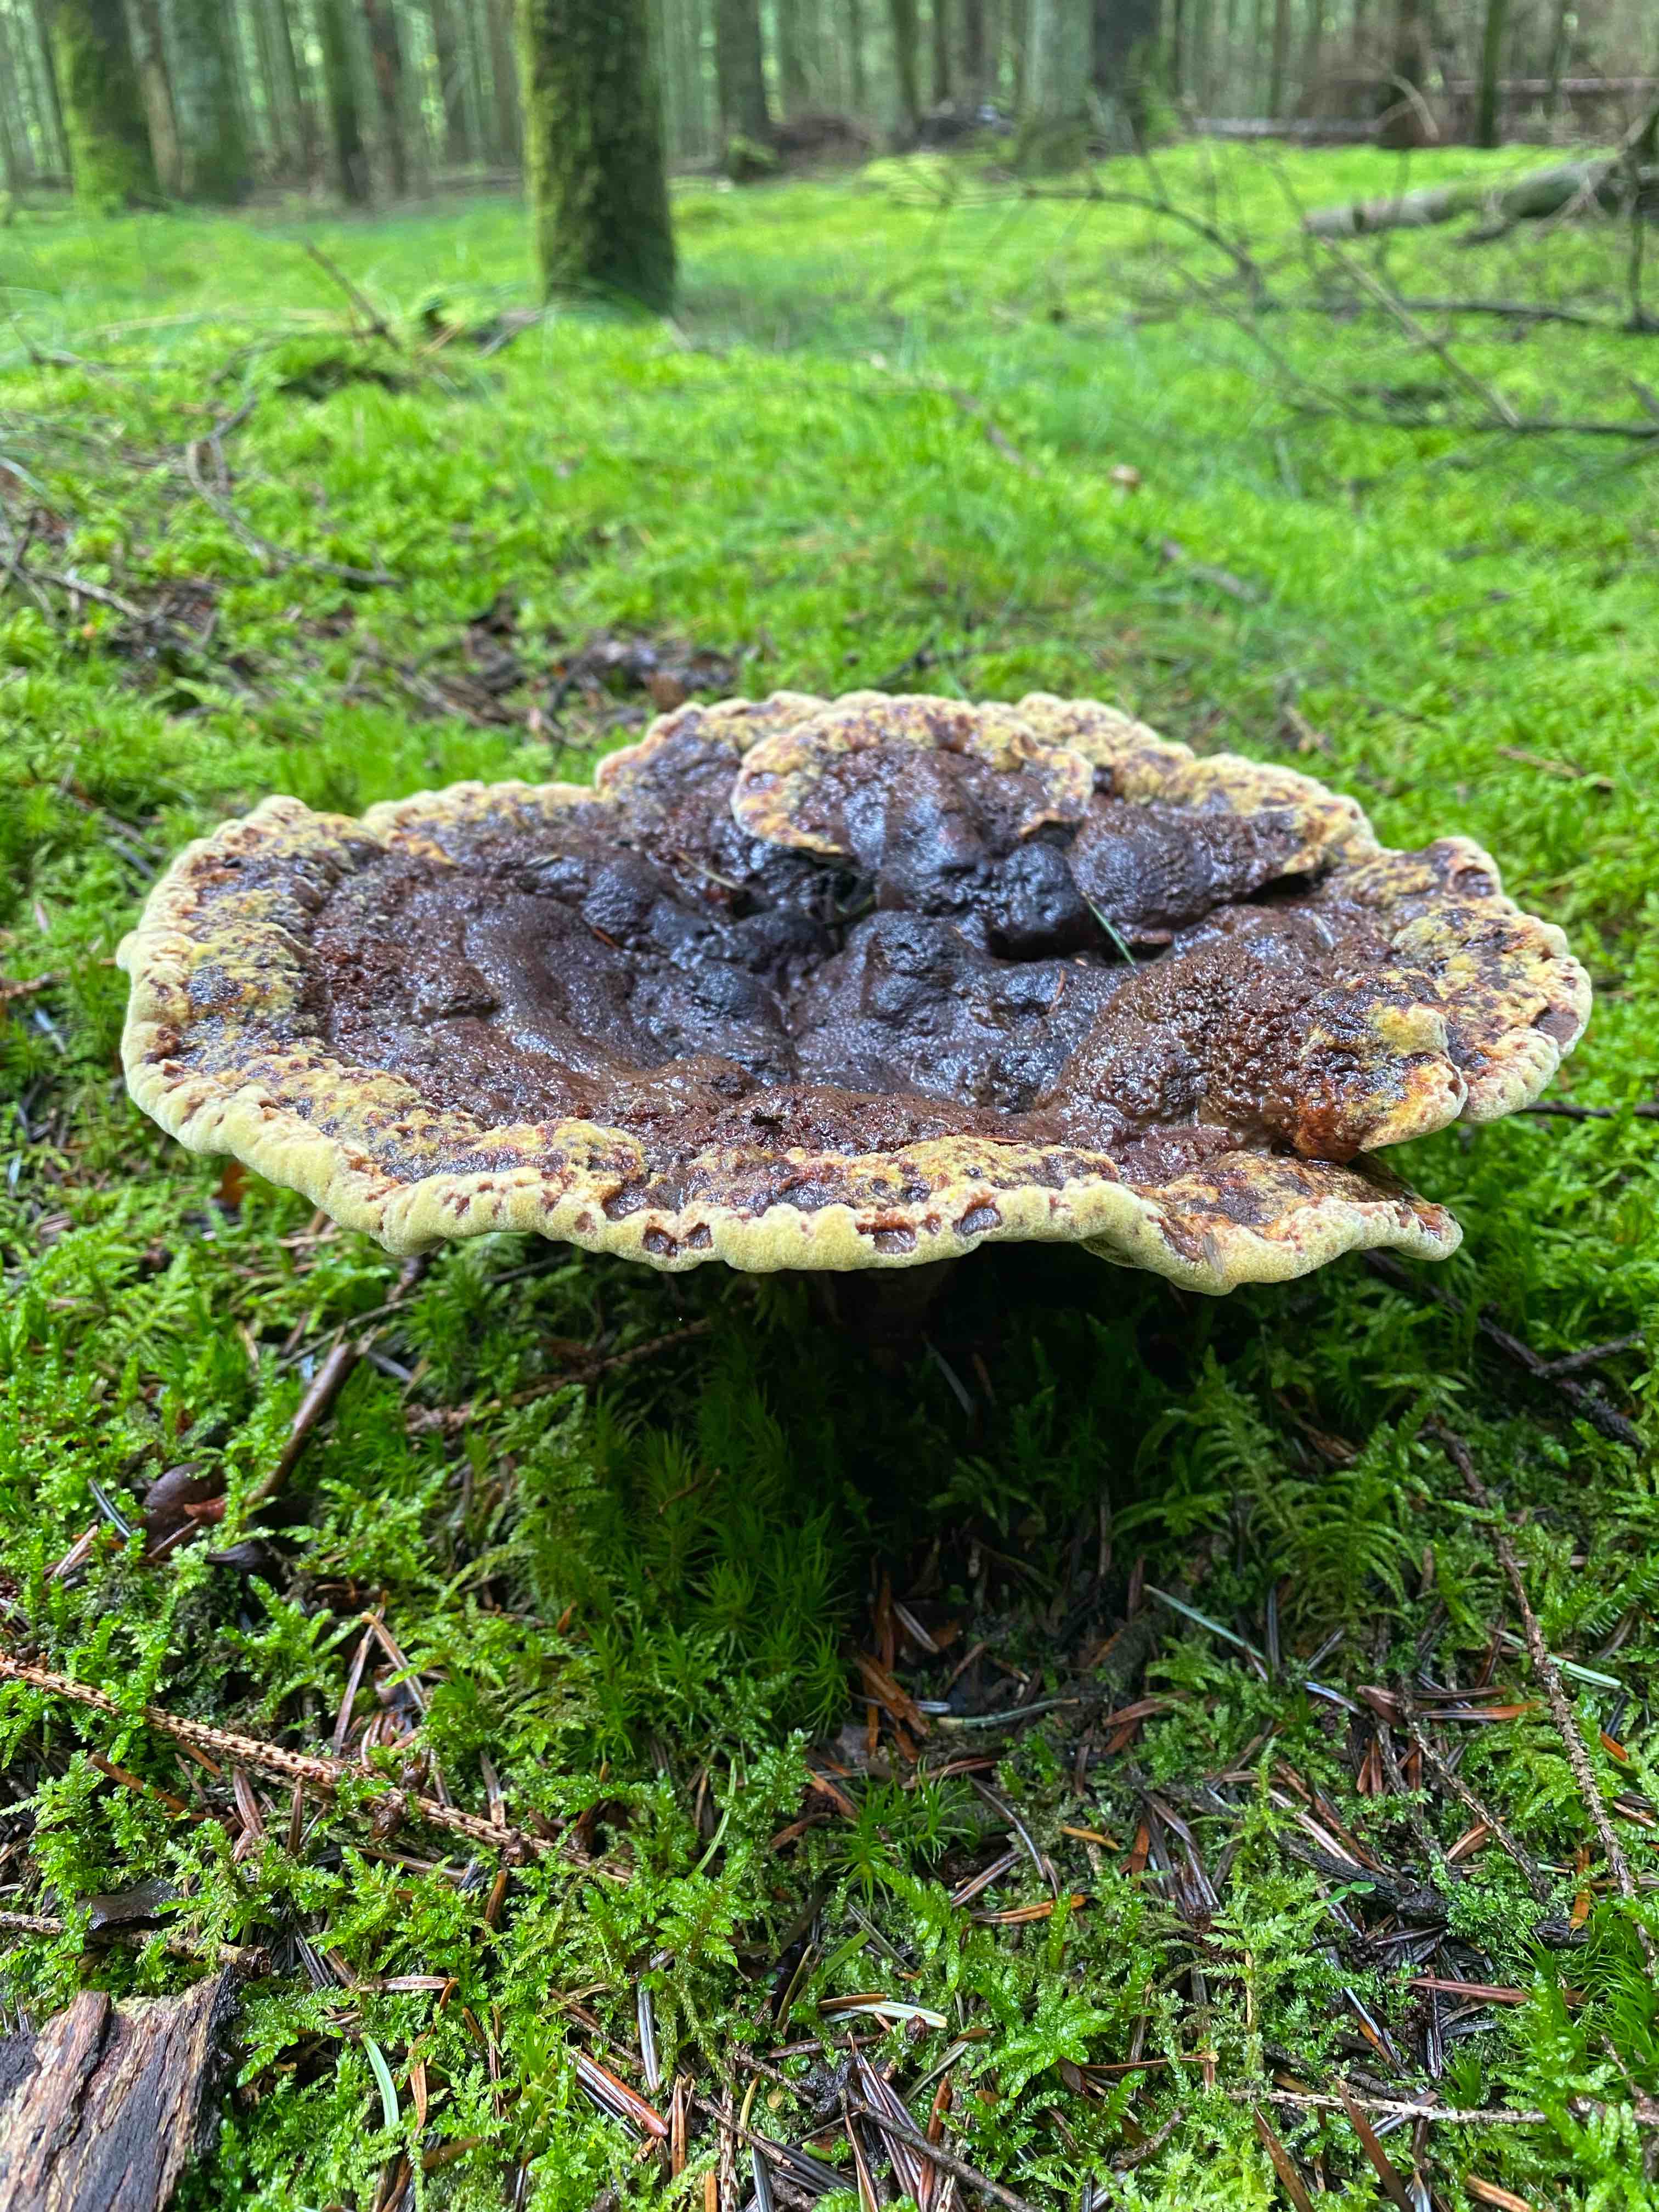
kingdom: Fungi
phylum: Basidiomycota
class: Agaricomycetes
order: Polyporales
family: Laetiporaceae
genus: Phaeolus
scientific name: Phaeolus schweinitzii
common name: brunporesvamp
